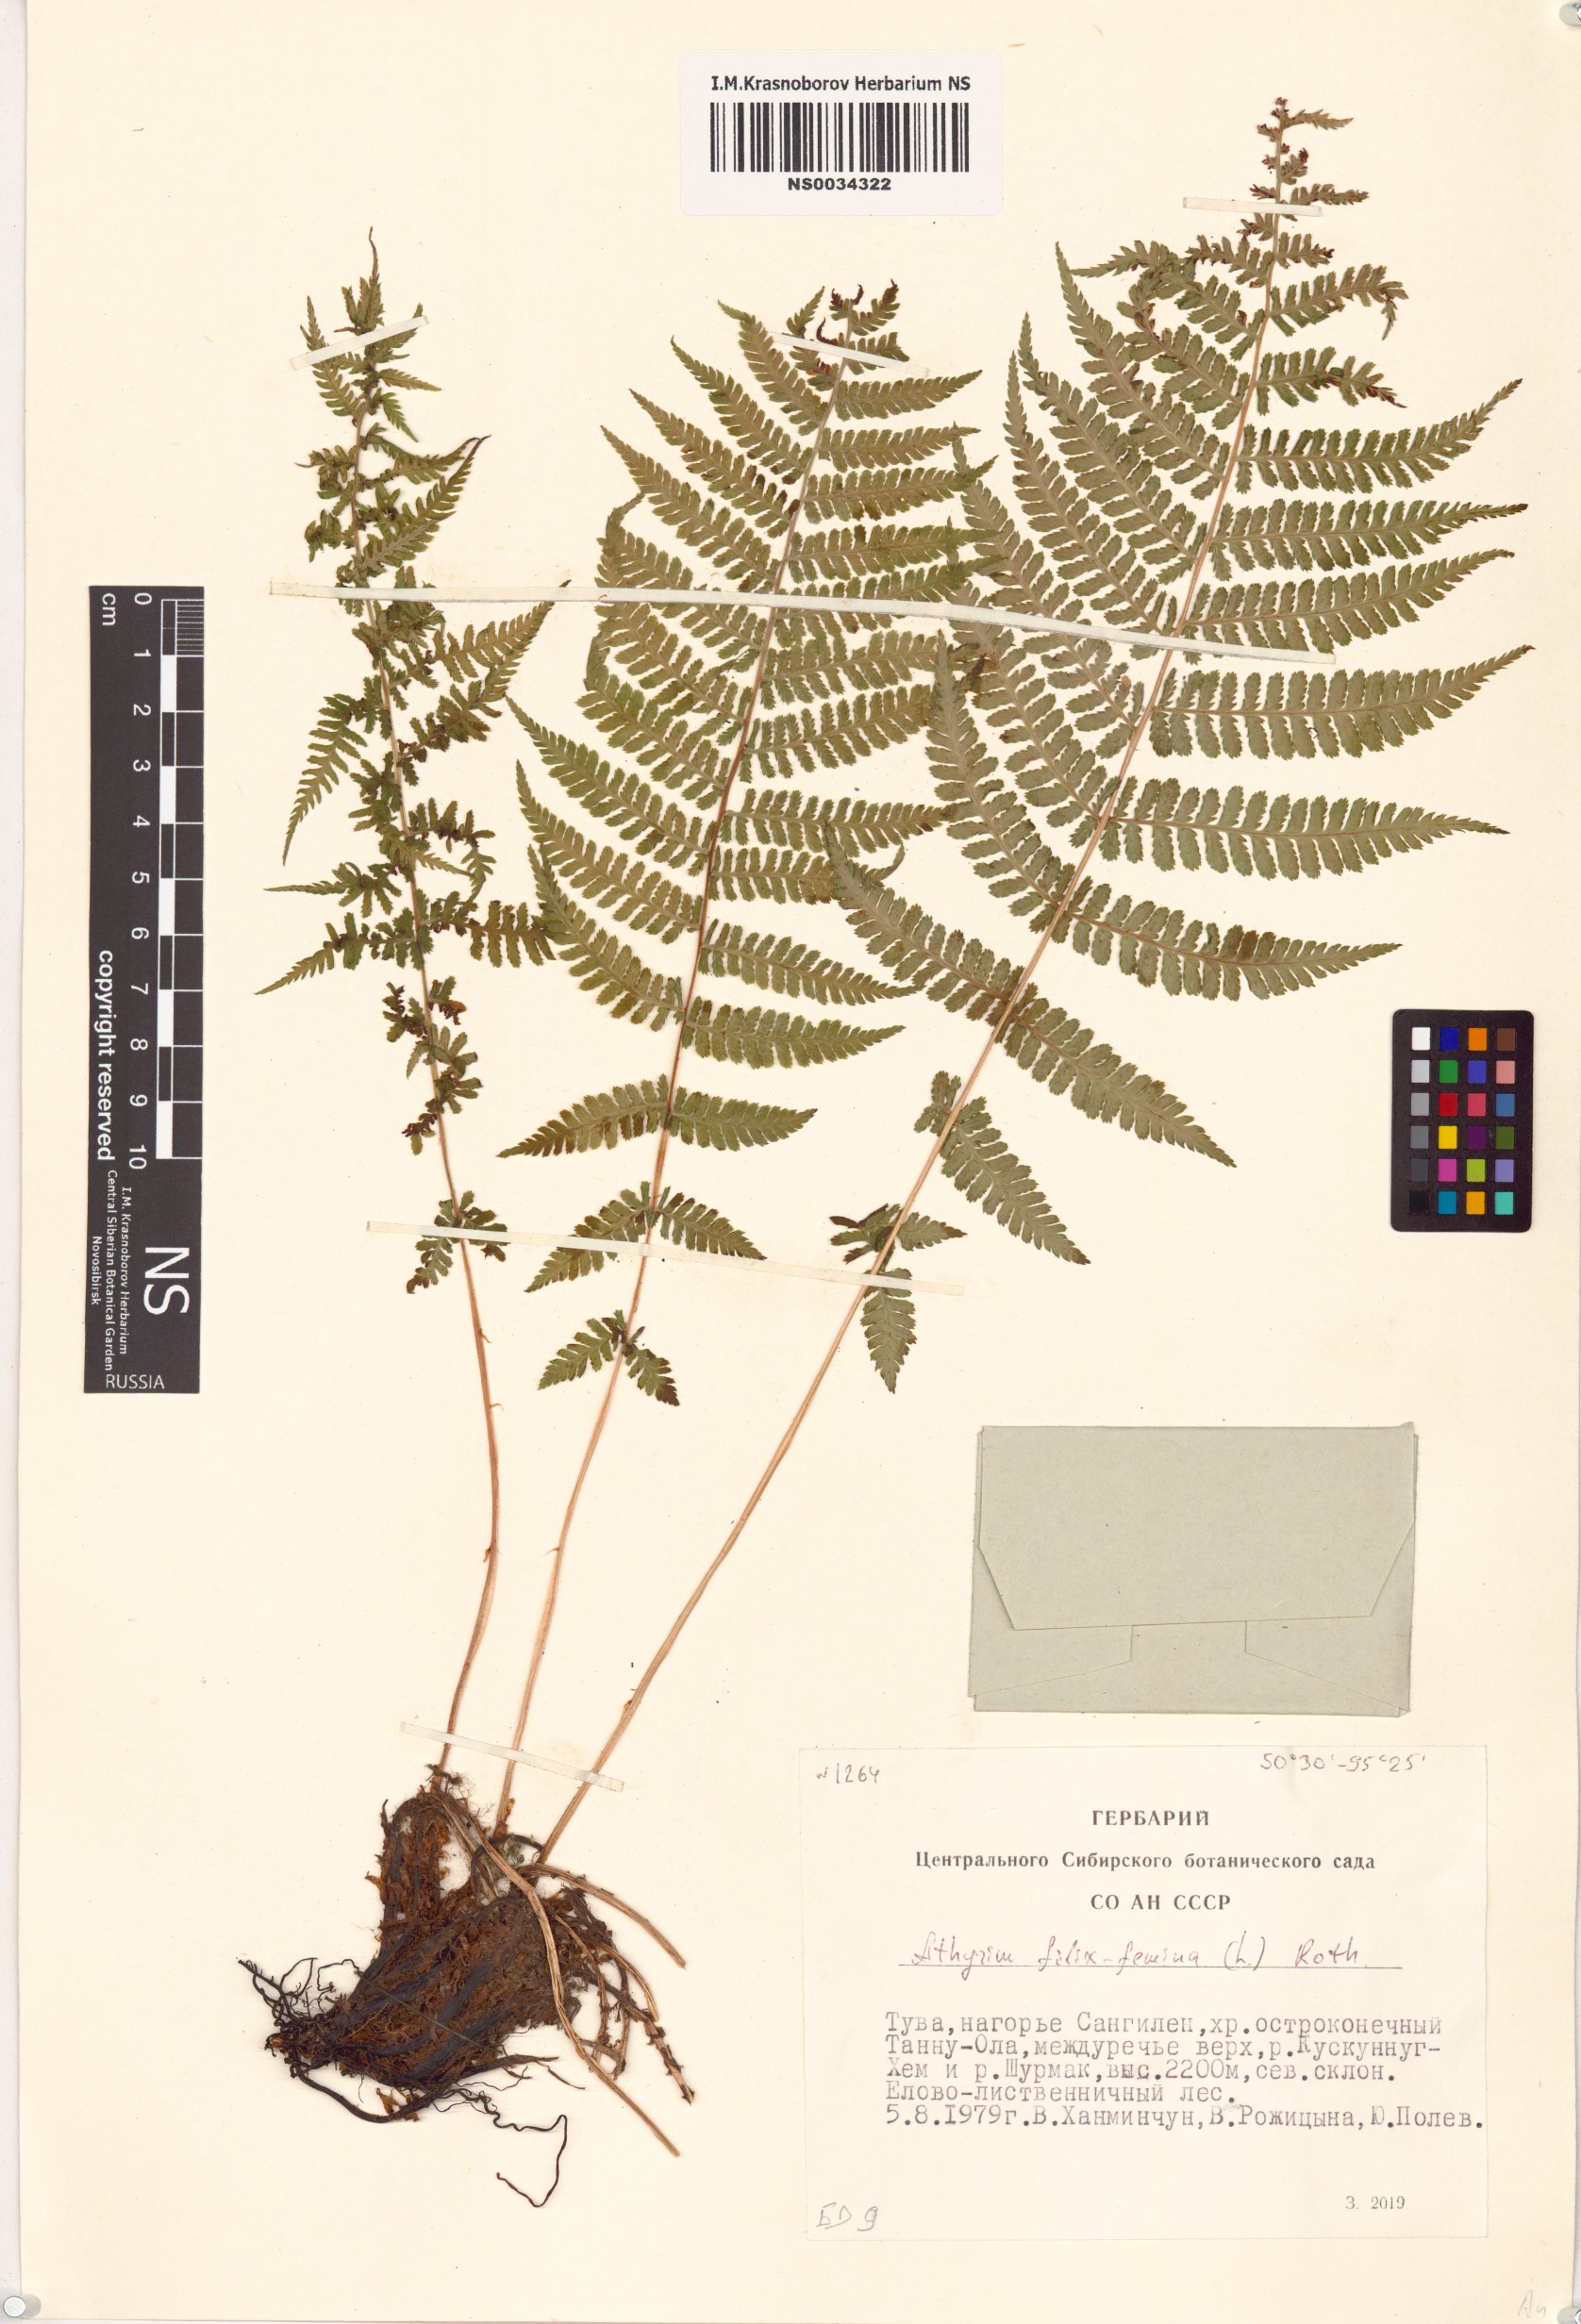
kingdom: Plantae
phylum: Tracheophyta
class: Polypodiopsida
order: Polypodiales
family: Athyriaceae
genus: Athyrium
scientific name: Athyrium filix-femina
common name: Lady fern
